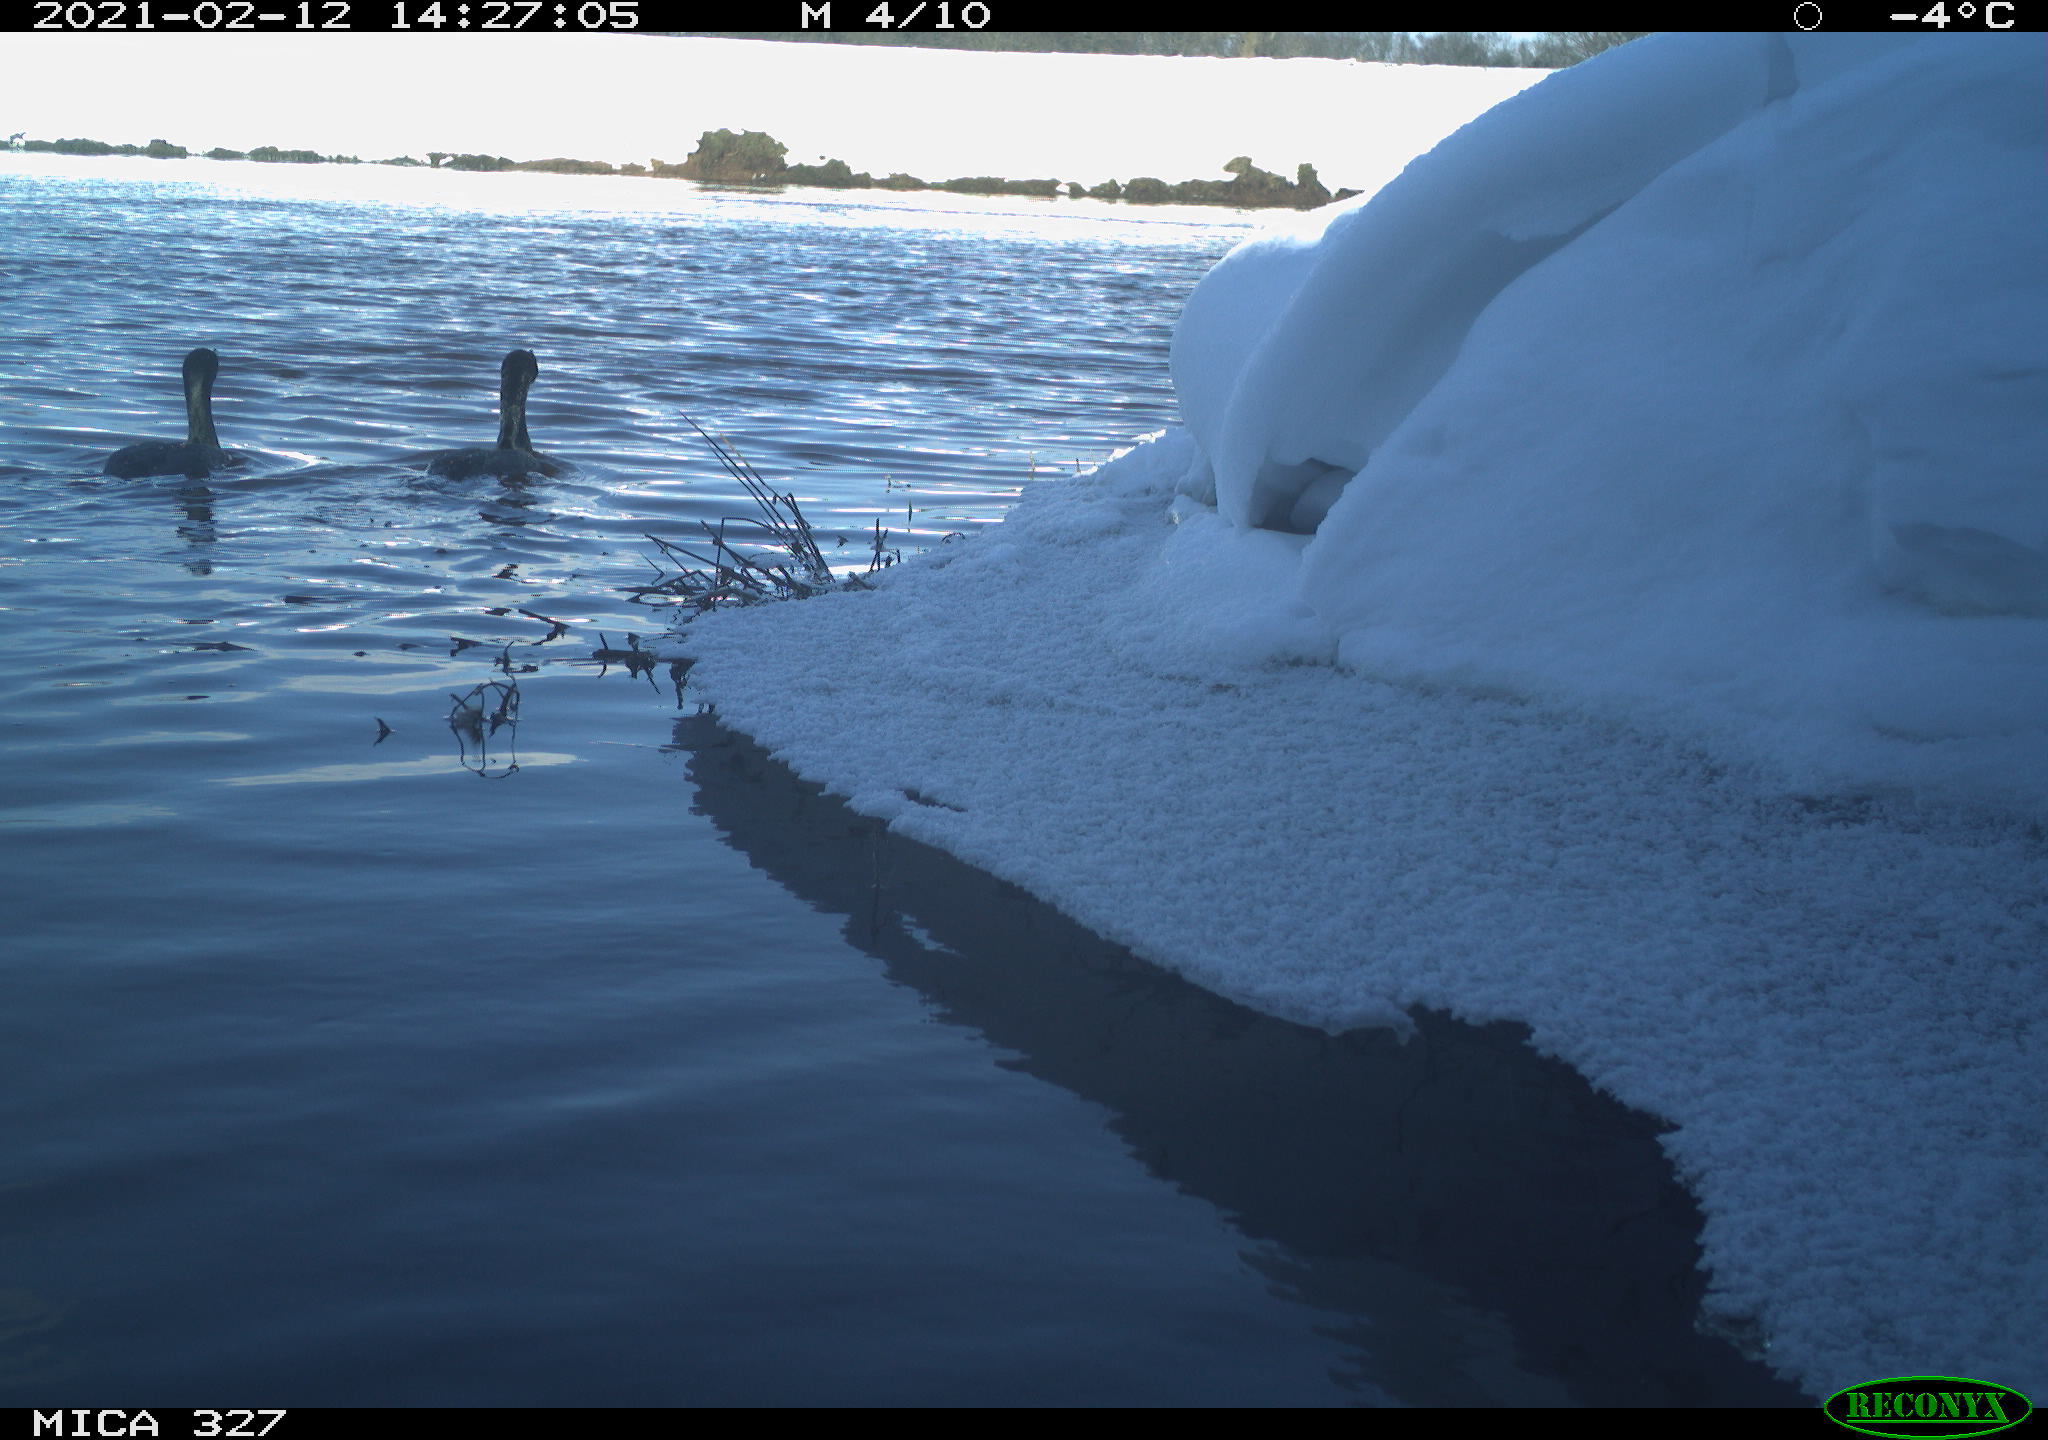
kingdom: Animalia
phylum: Chordata
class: Aves
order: Suliformes
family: Phalacrocoracidae
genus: Phalacrocorax
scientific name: Phalacrocorax carbo
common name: Great cormorant
